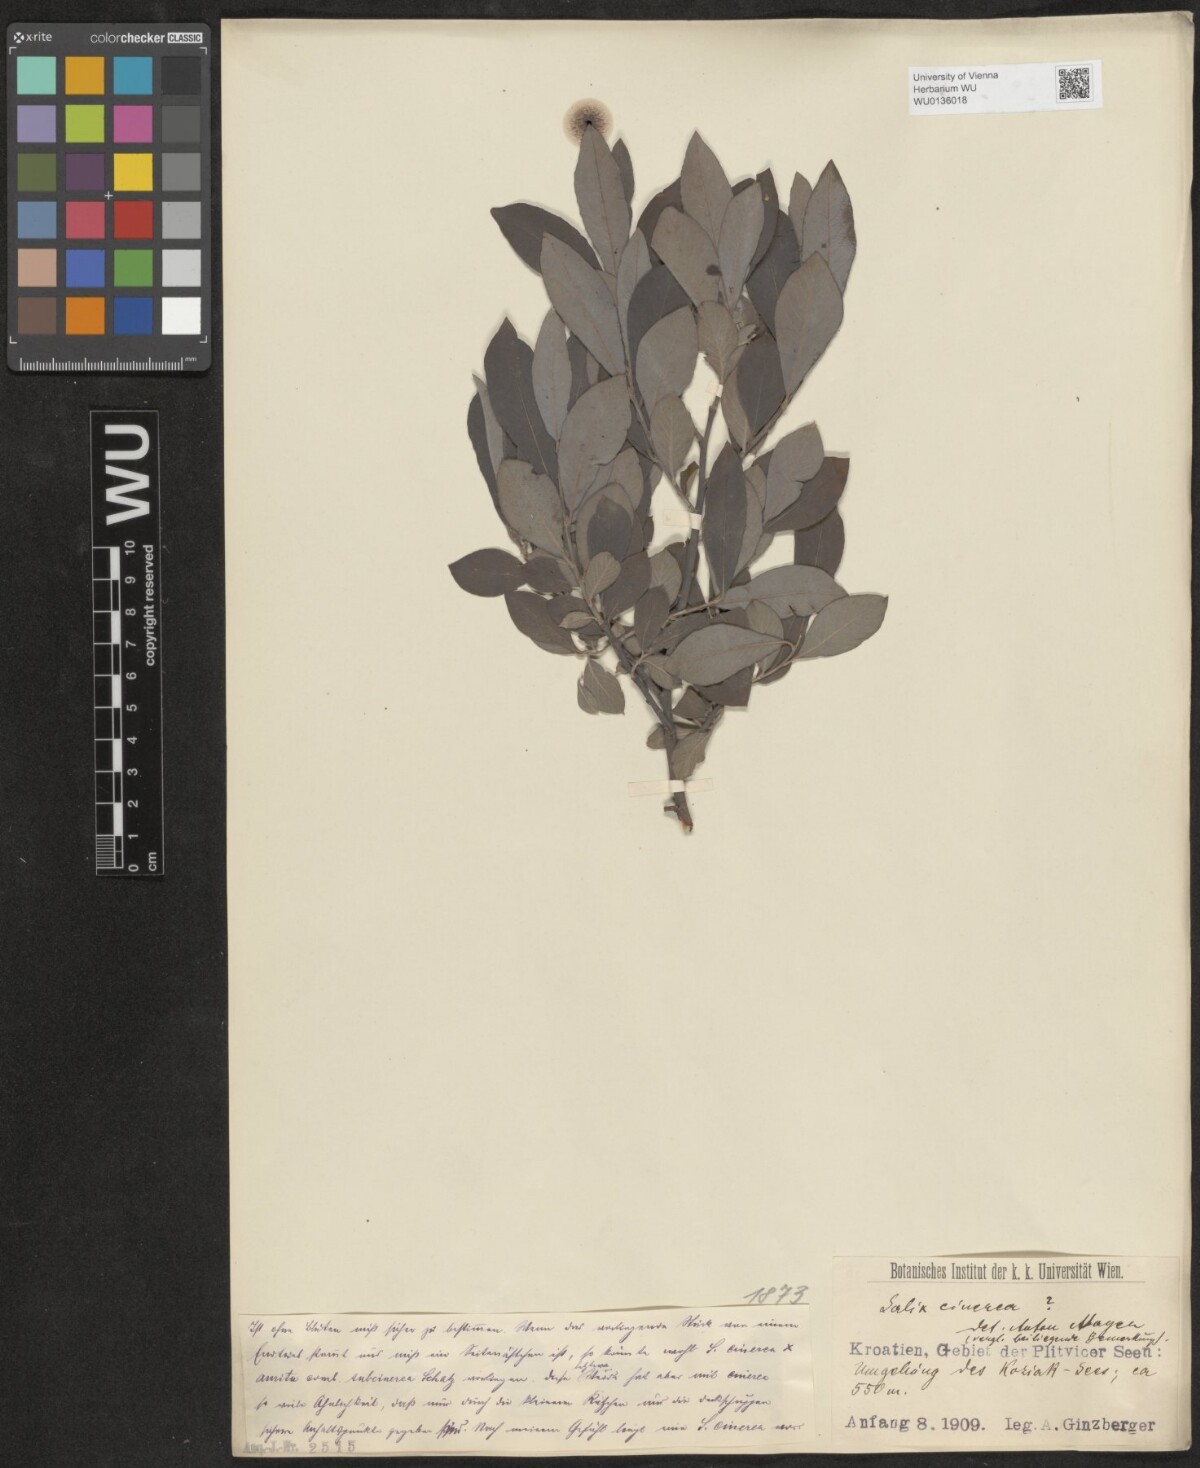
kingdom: Plantae
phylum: Tracheophyta
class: Magnoliopsida
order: Malpighiales
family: Salicaceae
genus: Salix
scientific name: Salix cinerea
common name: Common sallow
